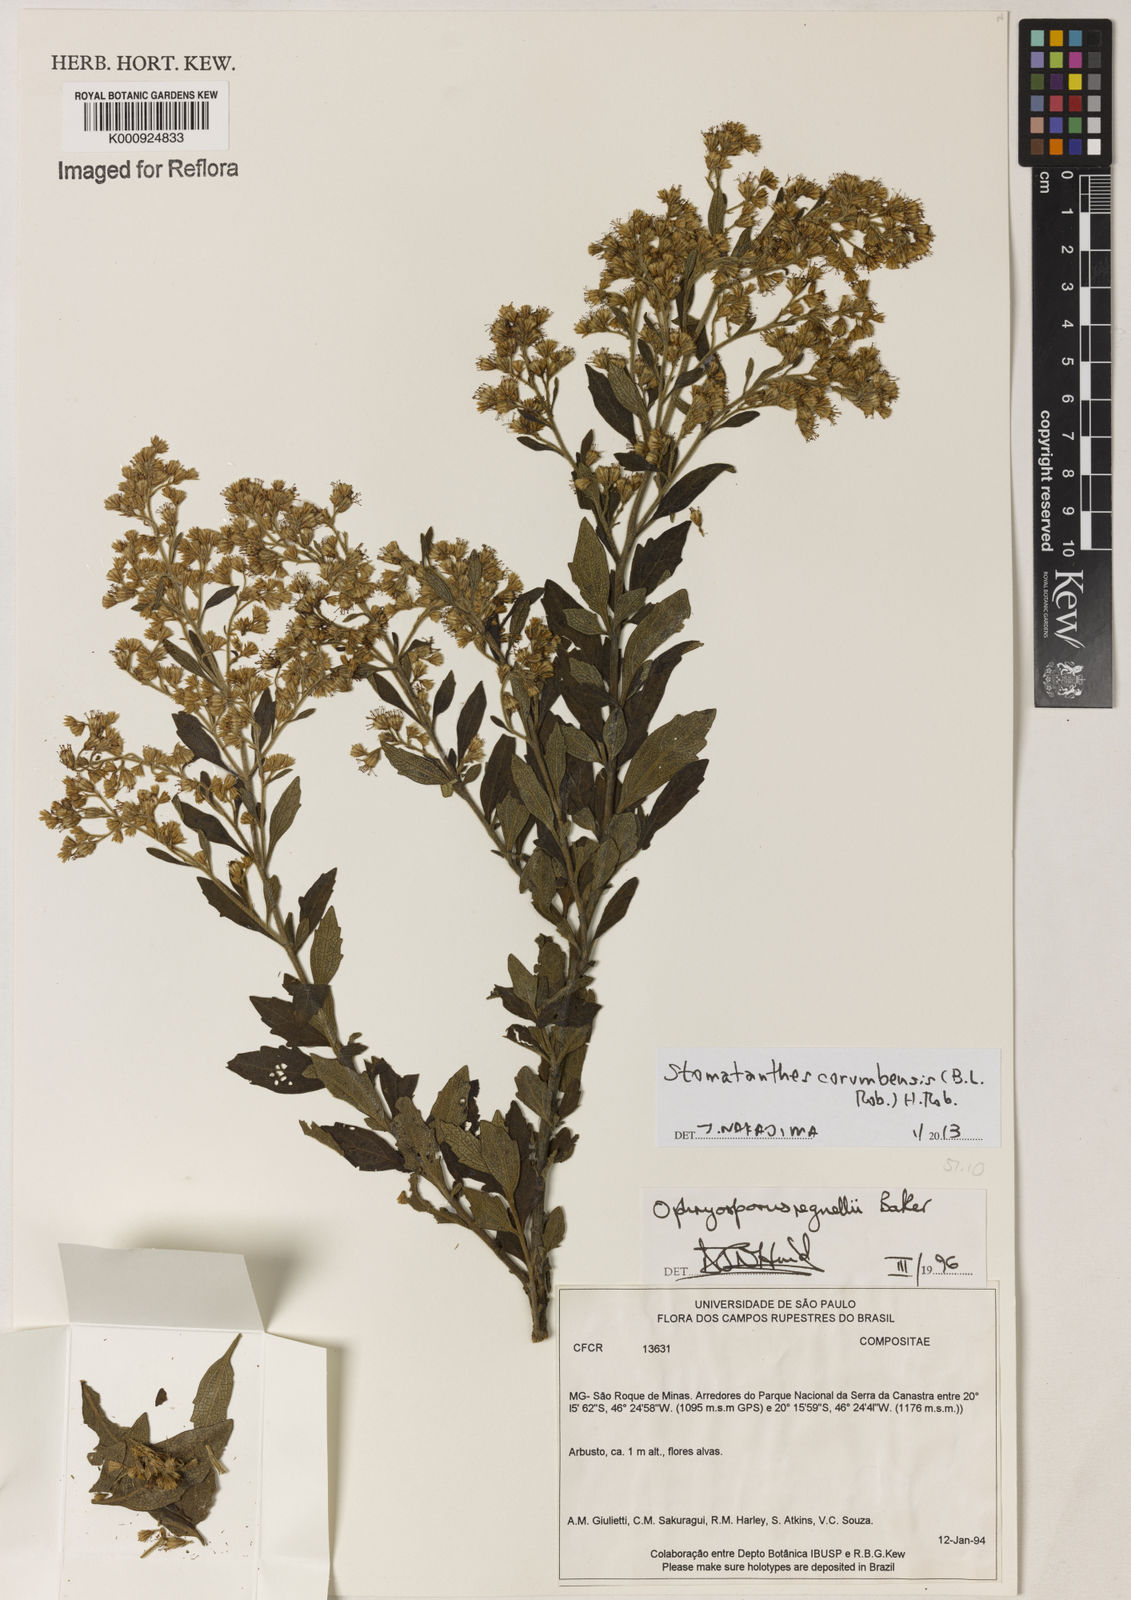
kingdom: Plantae
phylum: Tracheophyta
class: Magnoliopsida
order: Asterales
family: Asteraceae
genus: Stomatanthes
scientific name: Stomatanthes
